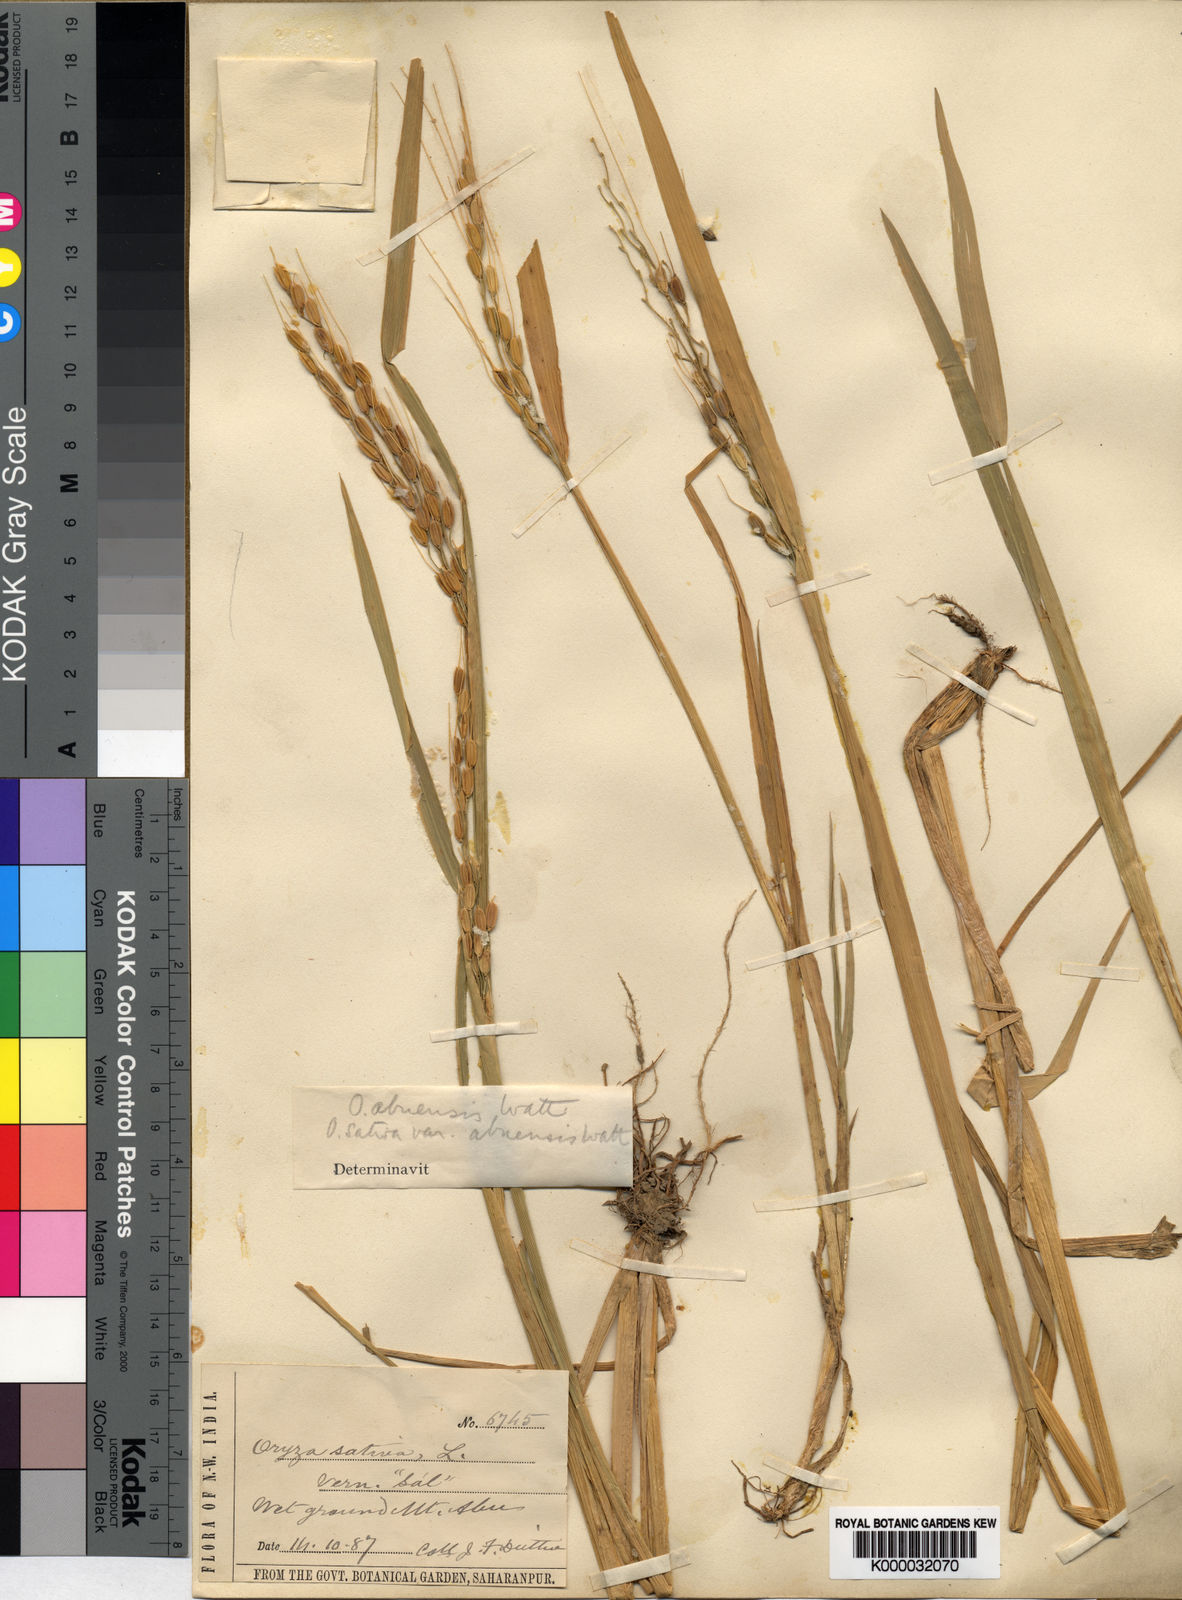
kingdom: Plantae
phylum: Tracheophyta
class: Liliopsida
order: Poales
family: Poaceae
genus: Oryza
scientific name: Oryza rufipogon
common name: Red rice
